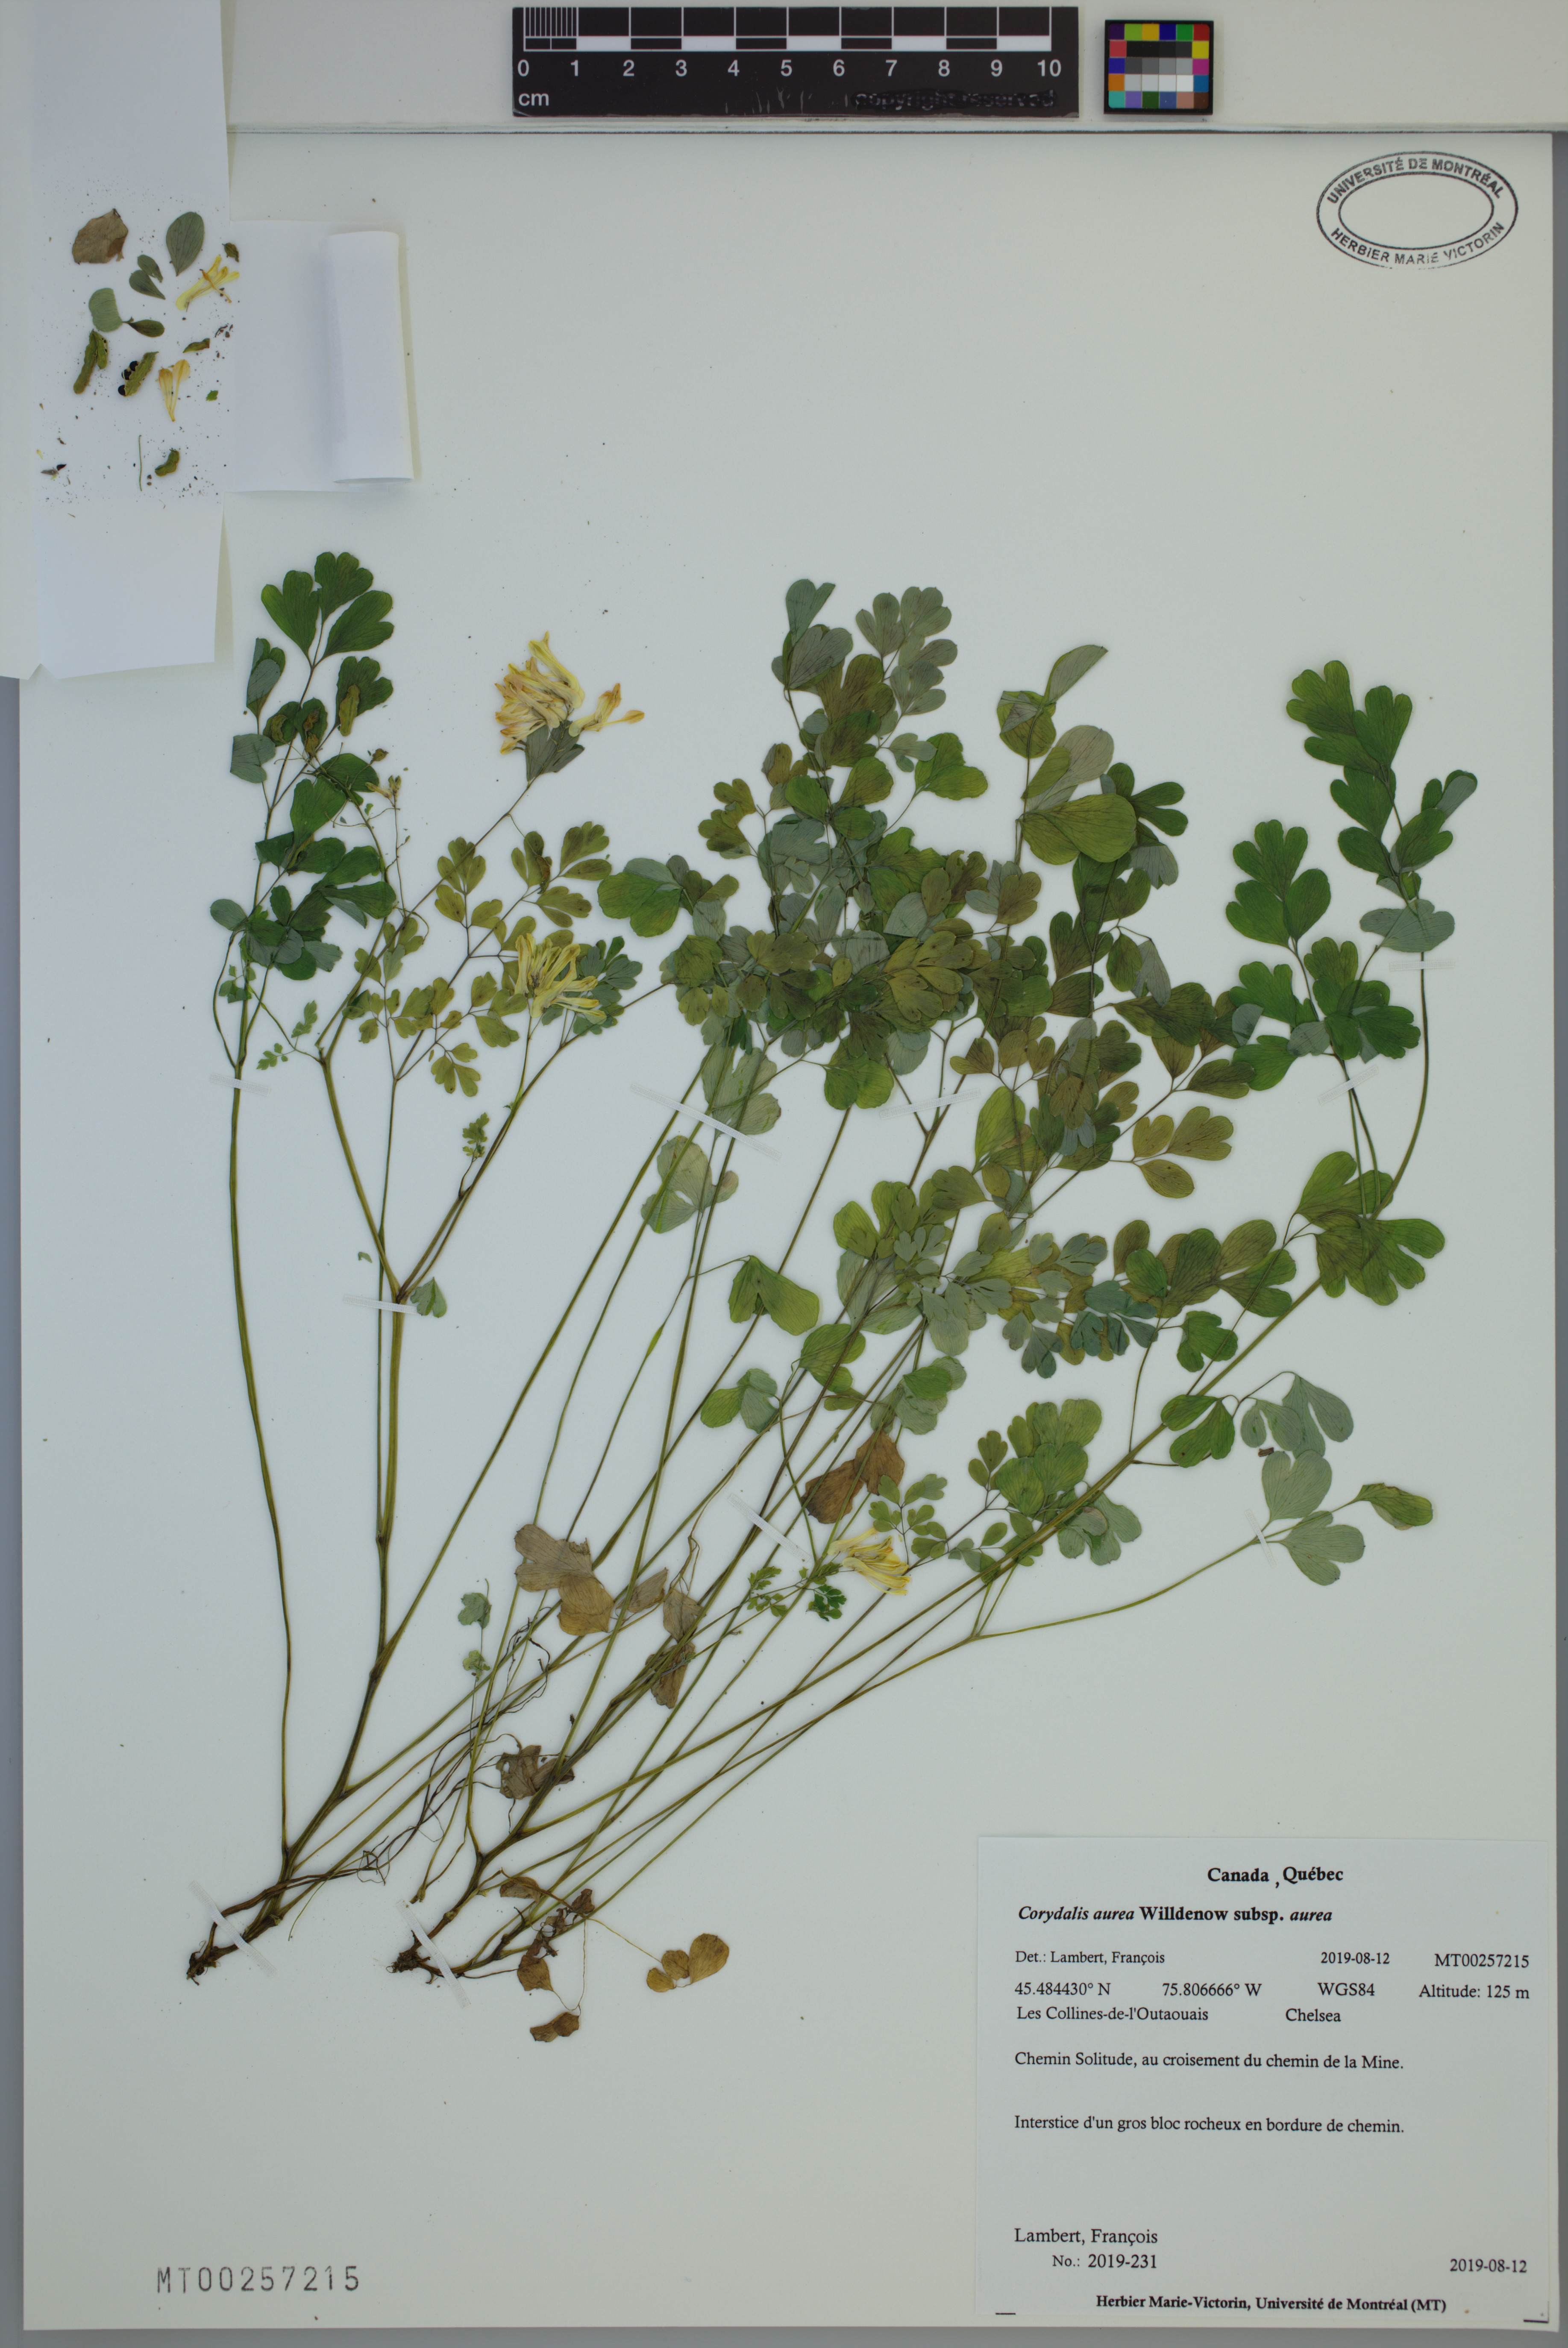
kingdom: Plantae
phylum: Tracheophyta
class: Magnoliopsida
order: Ranunculales
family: Papaveraceae
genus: Corydalis
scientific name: Corydalis aurea
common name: Golden corydalis
